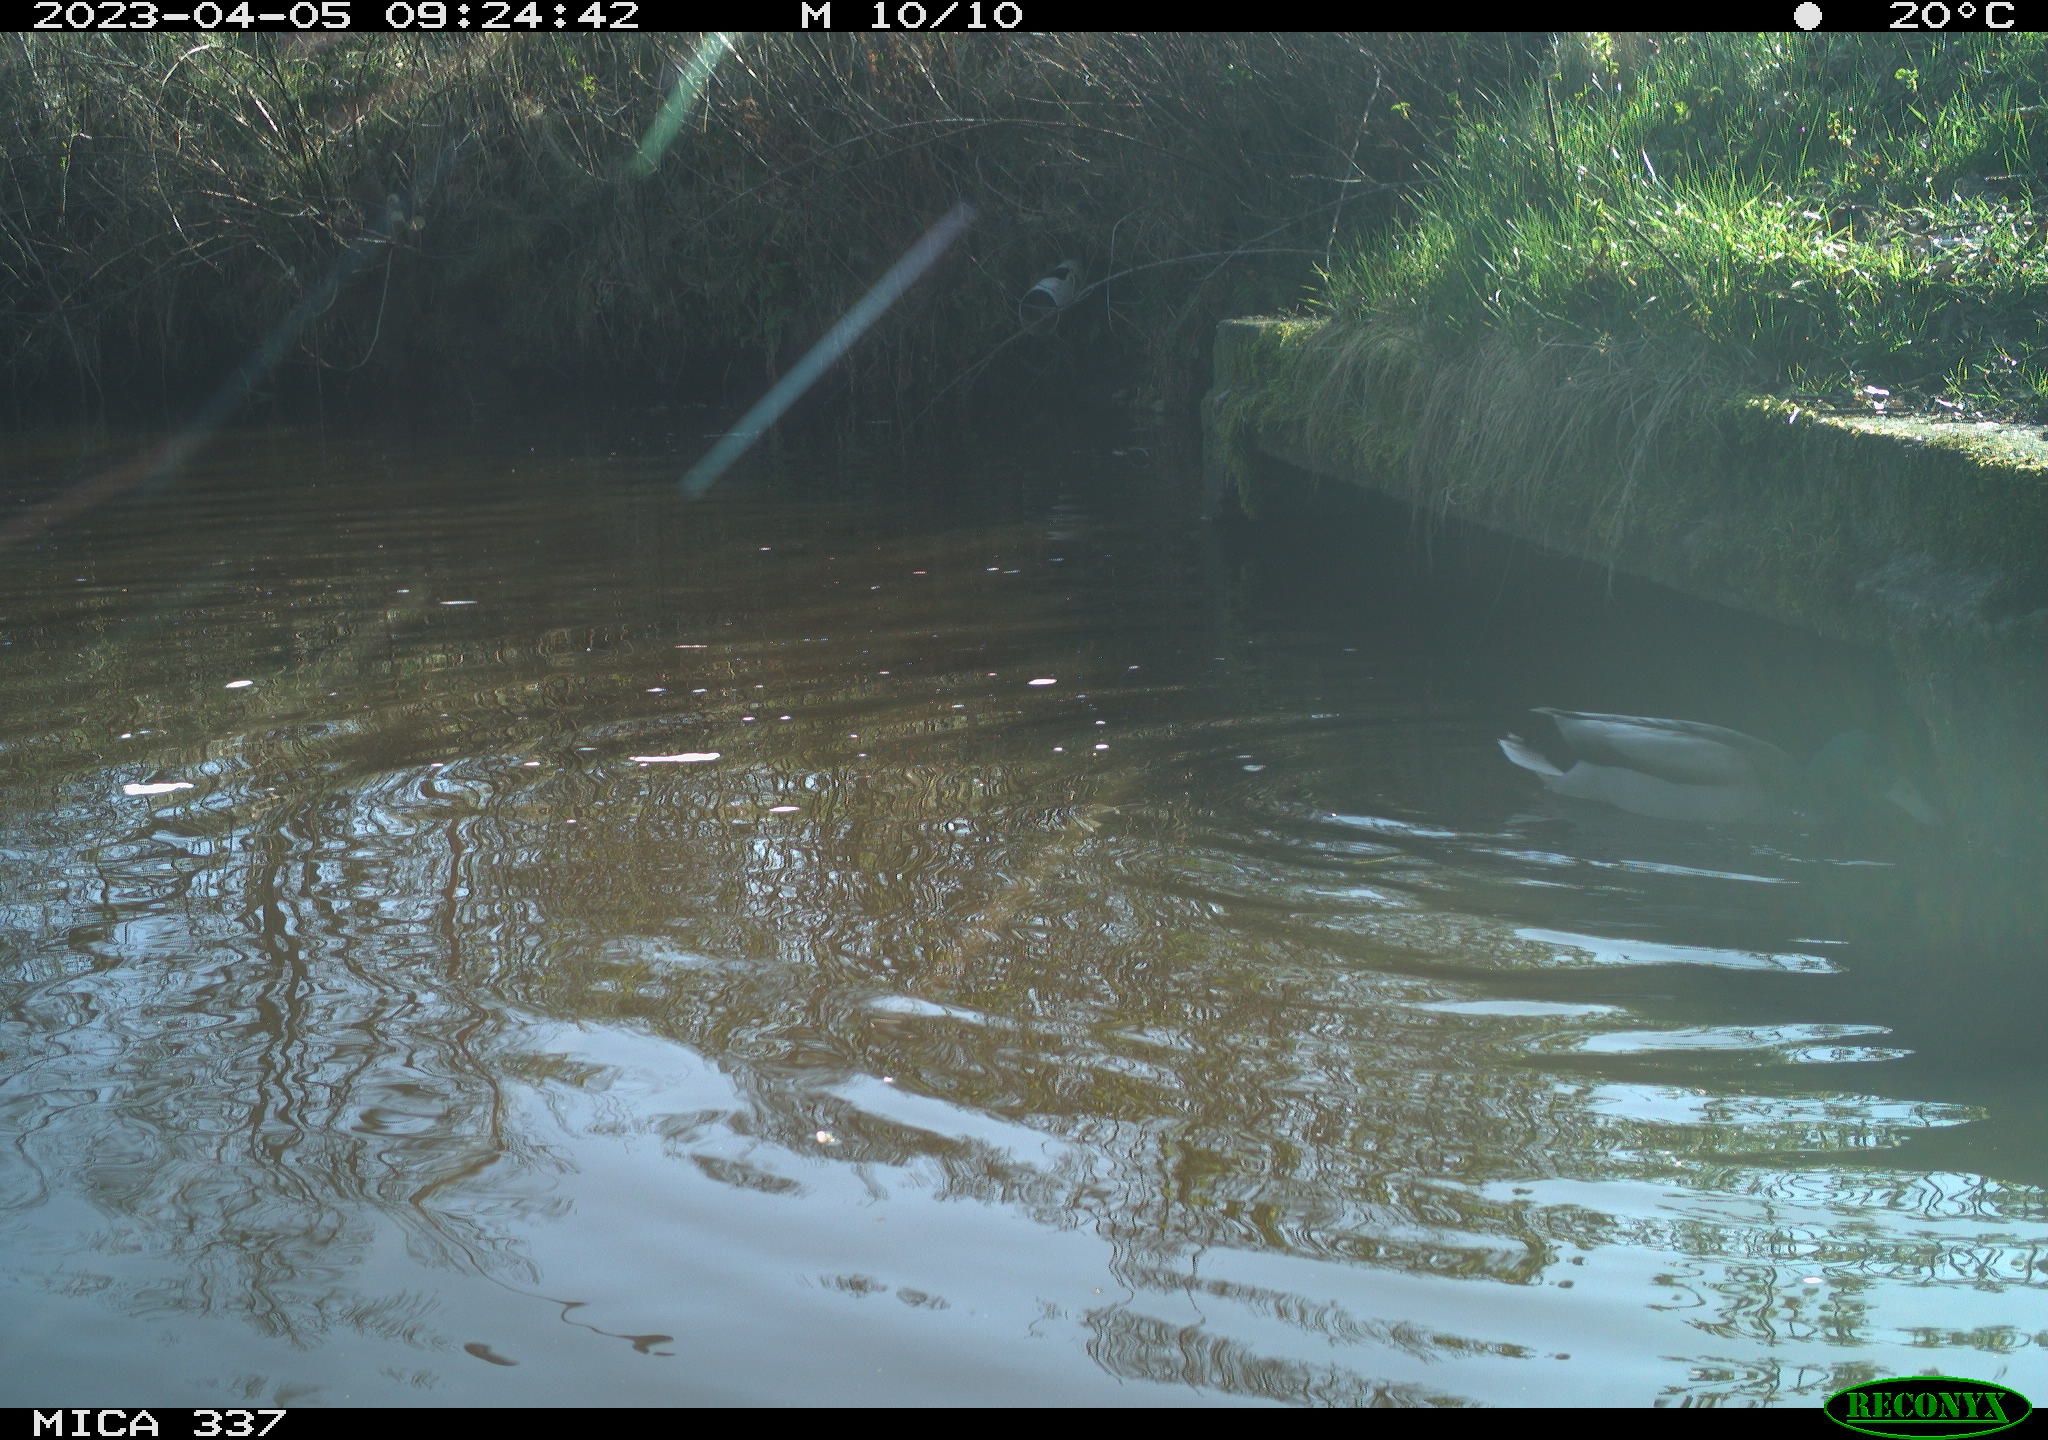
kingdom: Animalia
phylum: Chordata
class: Aves
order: Anseriformes
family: Anatidae
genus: Anas
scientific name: Anas
